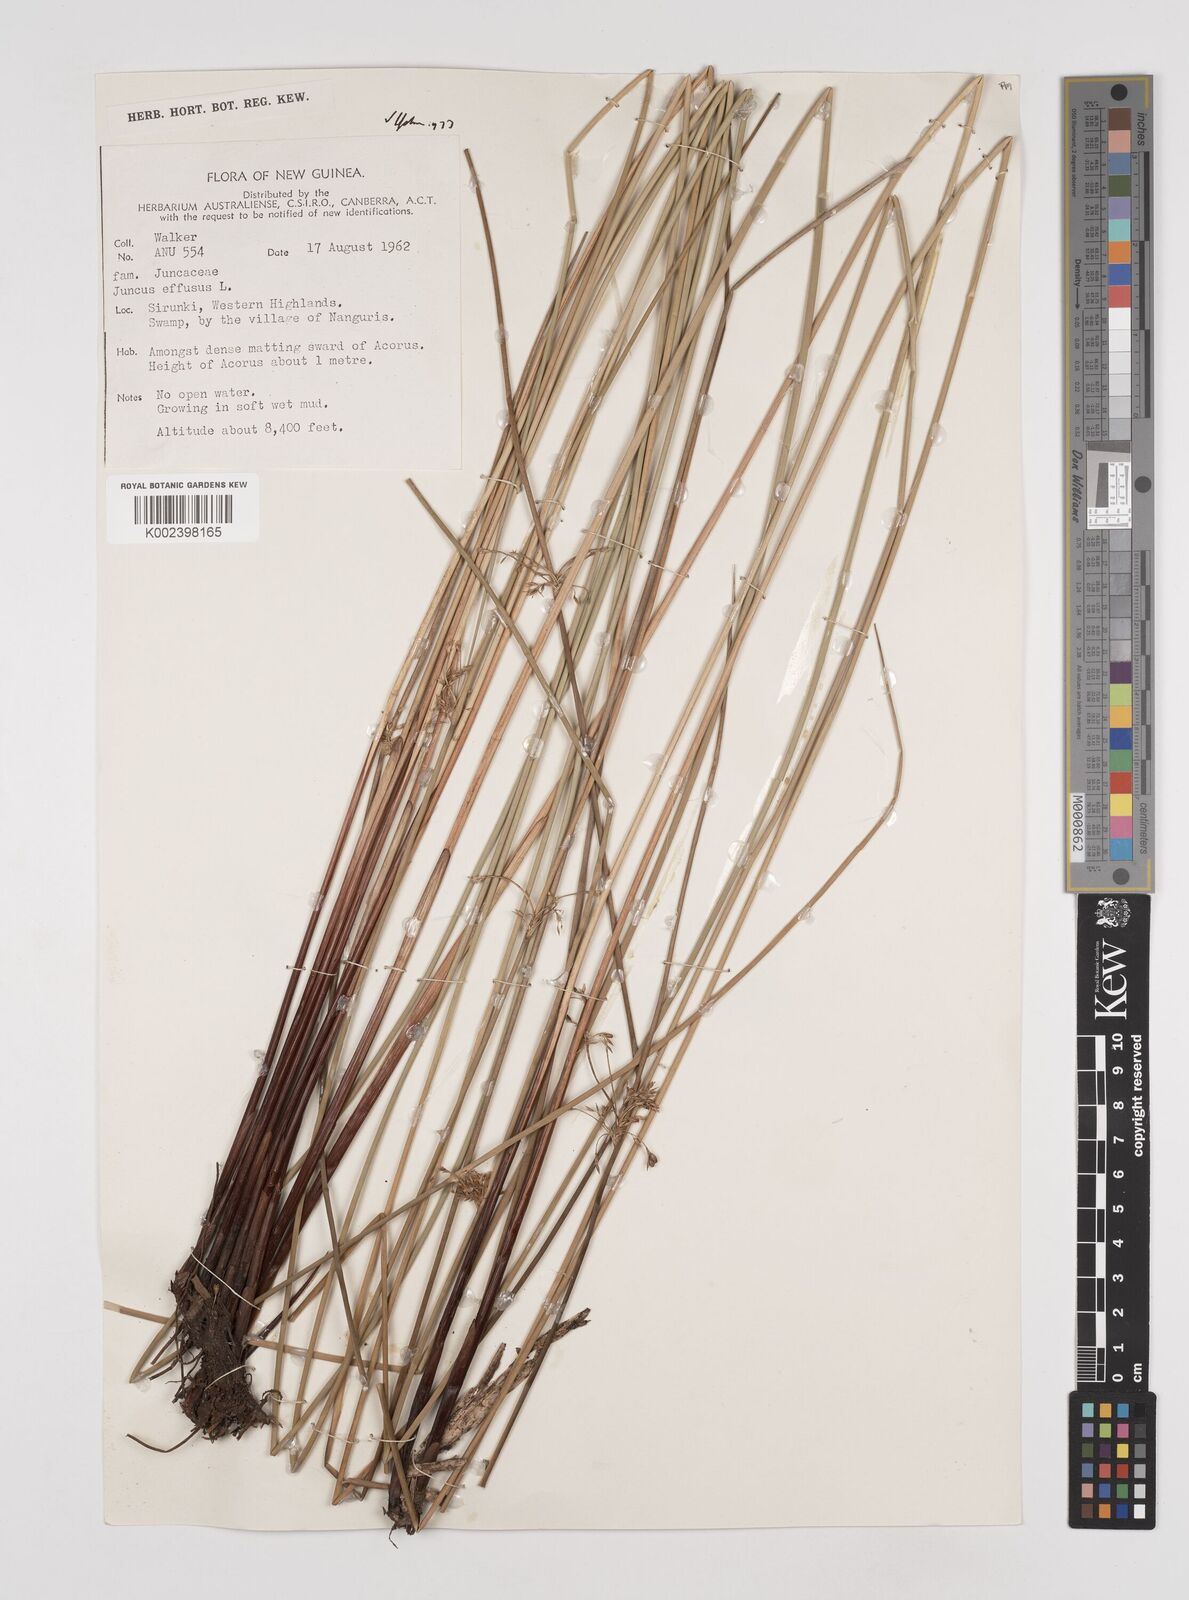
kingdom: Plantae
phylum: Tracheophyta
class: Liliopsida
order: Poales
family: Juncaceae
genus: Juncus
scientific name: Juncus effusus
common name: Soft rush
